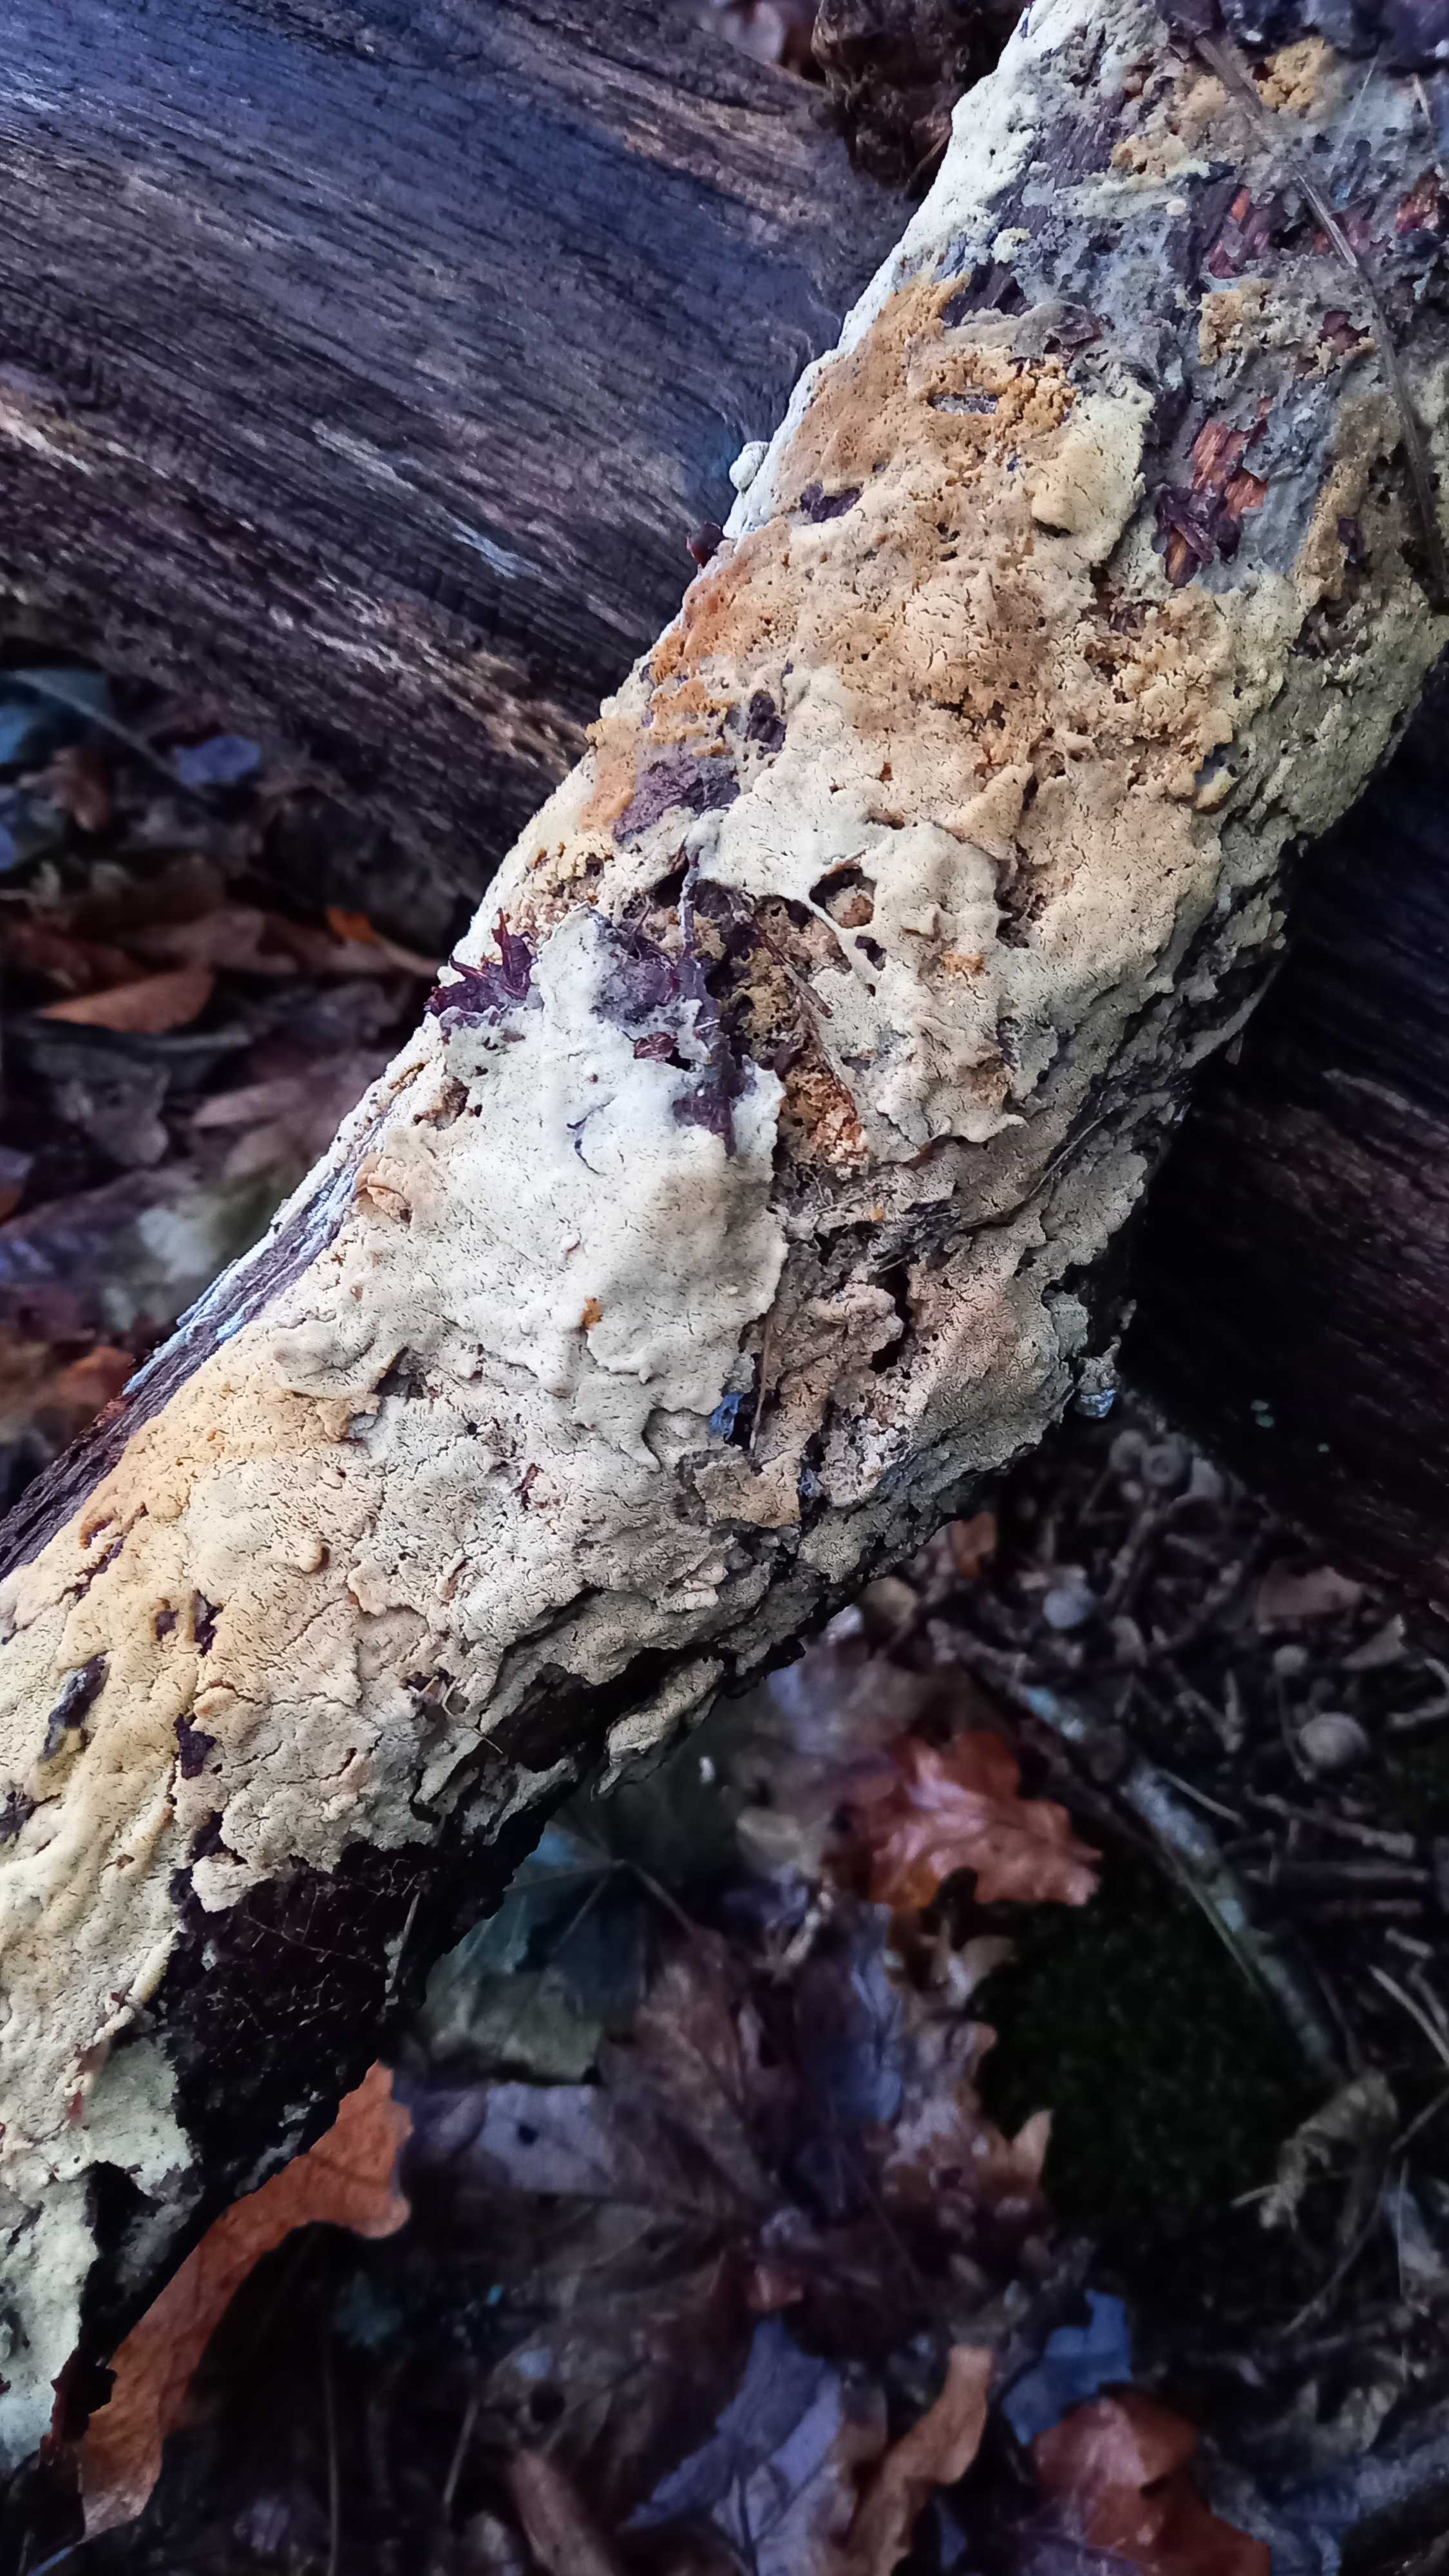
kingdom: Fungi
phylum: Basidiomycota
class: Agaricomycetes
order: Hymenochaetales
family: Schizoporaceae
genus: Xylodon
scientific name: Xylodon subtropicus
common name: labyrint-tandsvamp
